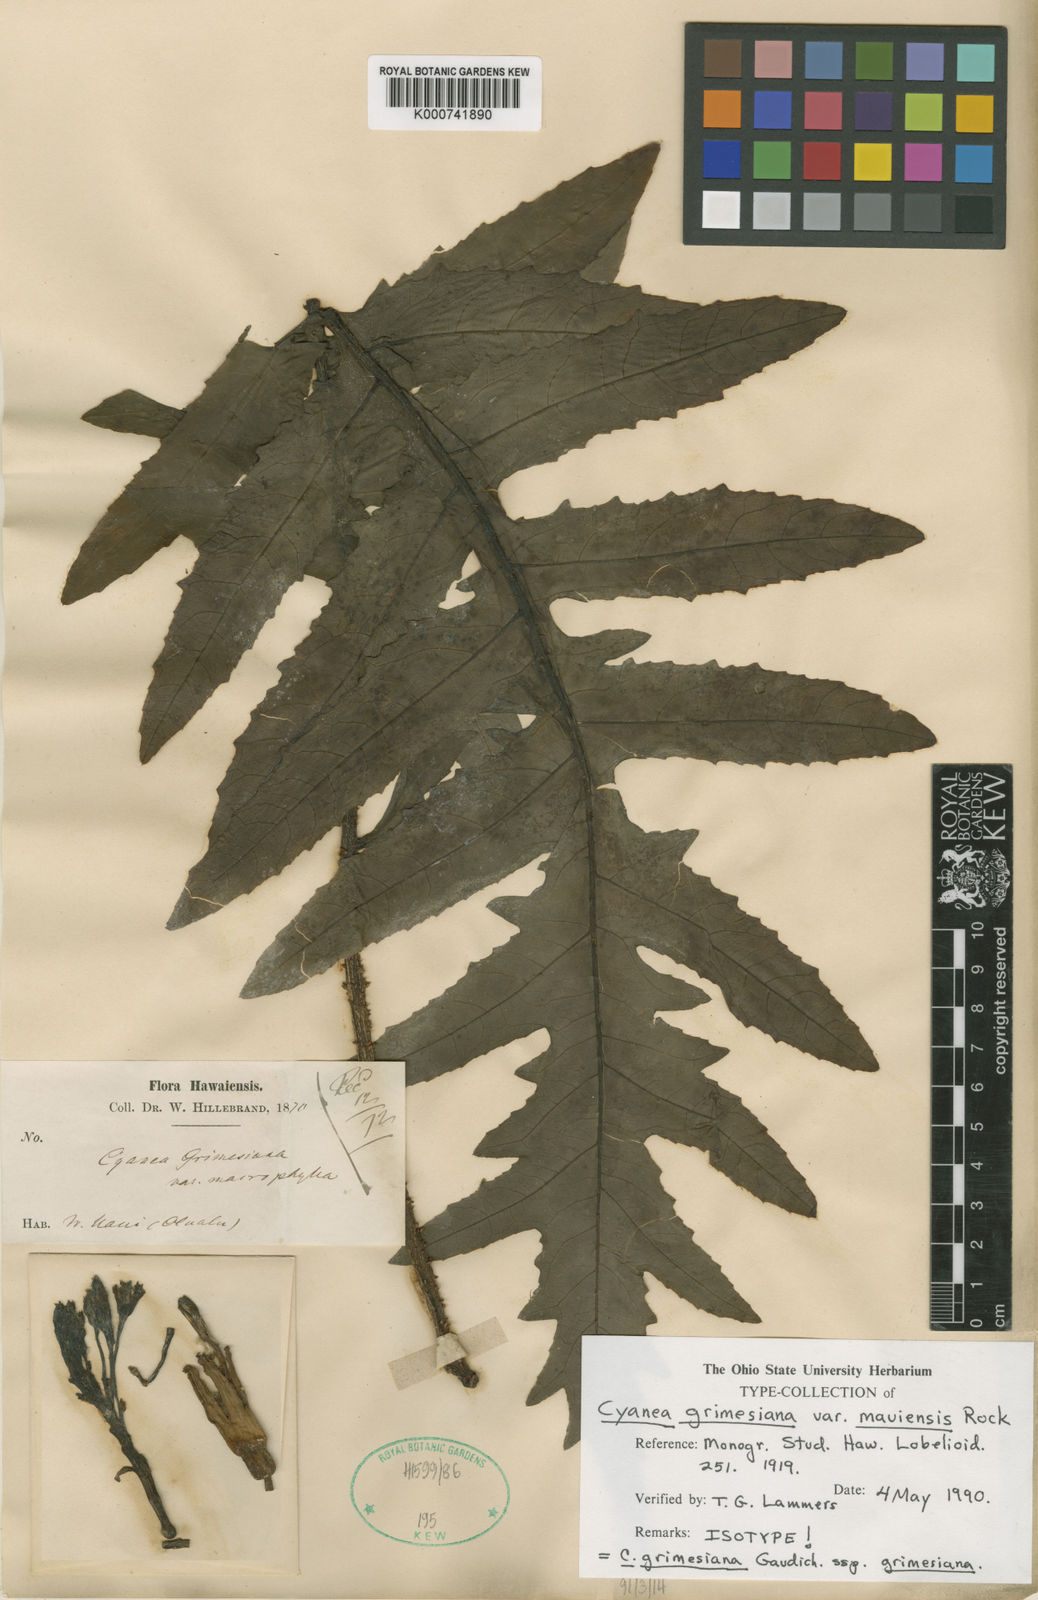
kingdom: Plantae
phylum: Tracheophyta
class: Magnoliopsida
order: Asterales
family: Campanulaceae
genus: Cyanea
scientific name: Cyanea grimesiana
